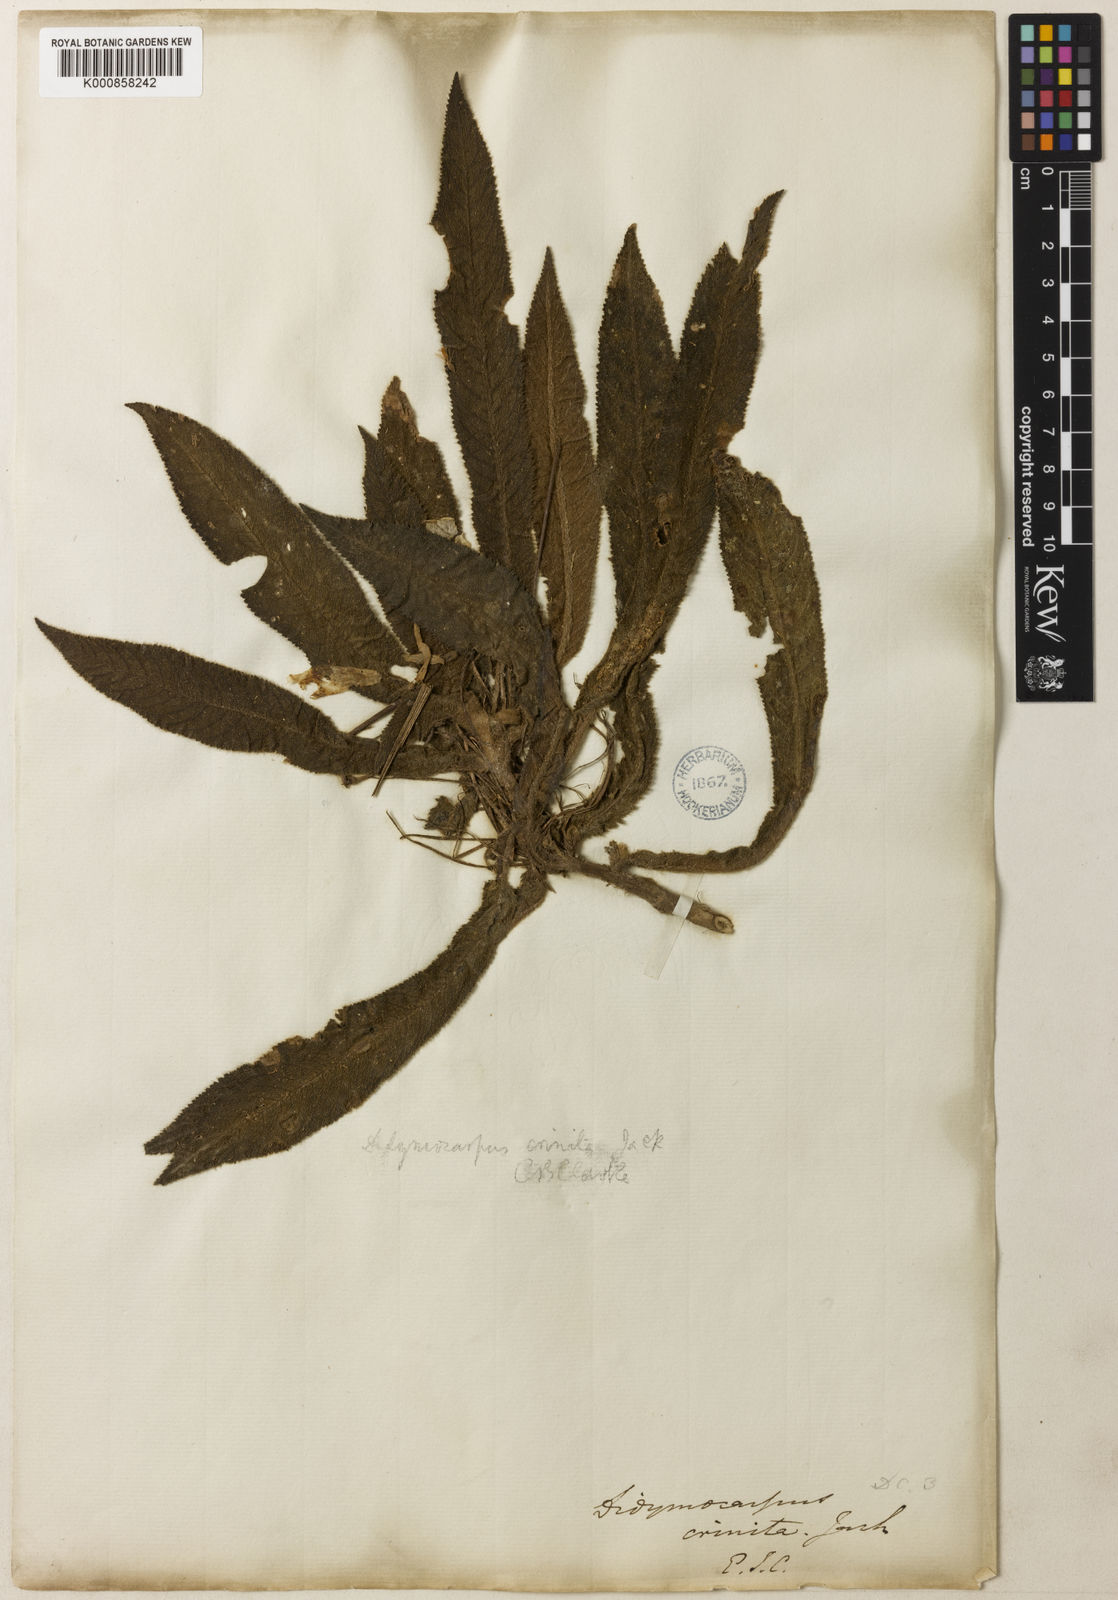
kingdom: Plantae
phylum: Tracheophyta
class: Magnoliopsida
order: Lamiales
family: Gesneriaceae
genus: Codonoboea
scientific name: Codonoboea crinita
